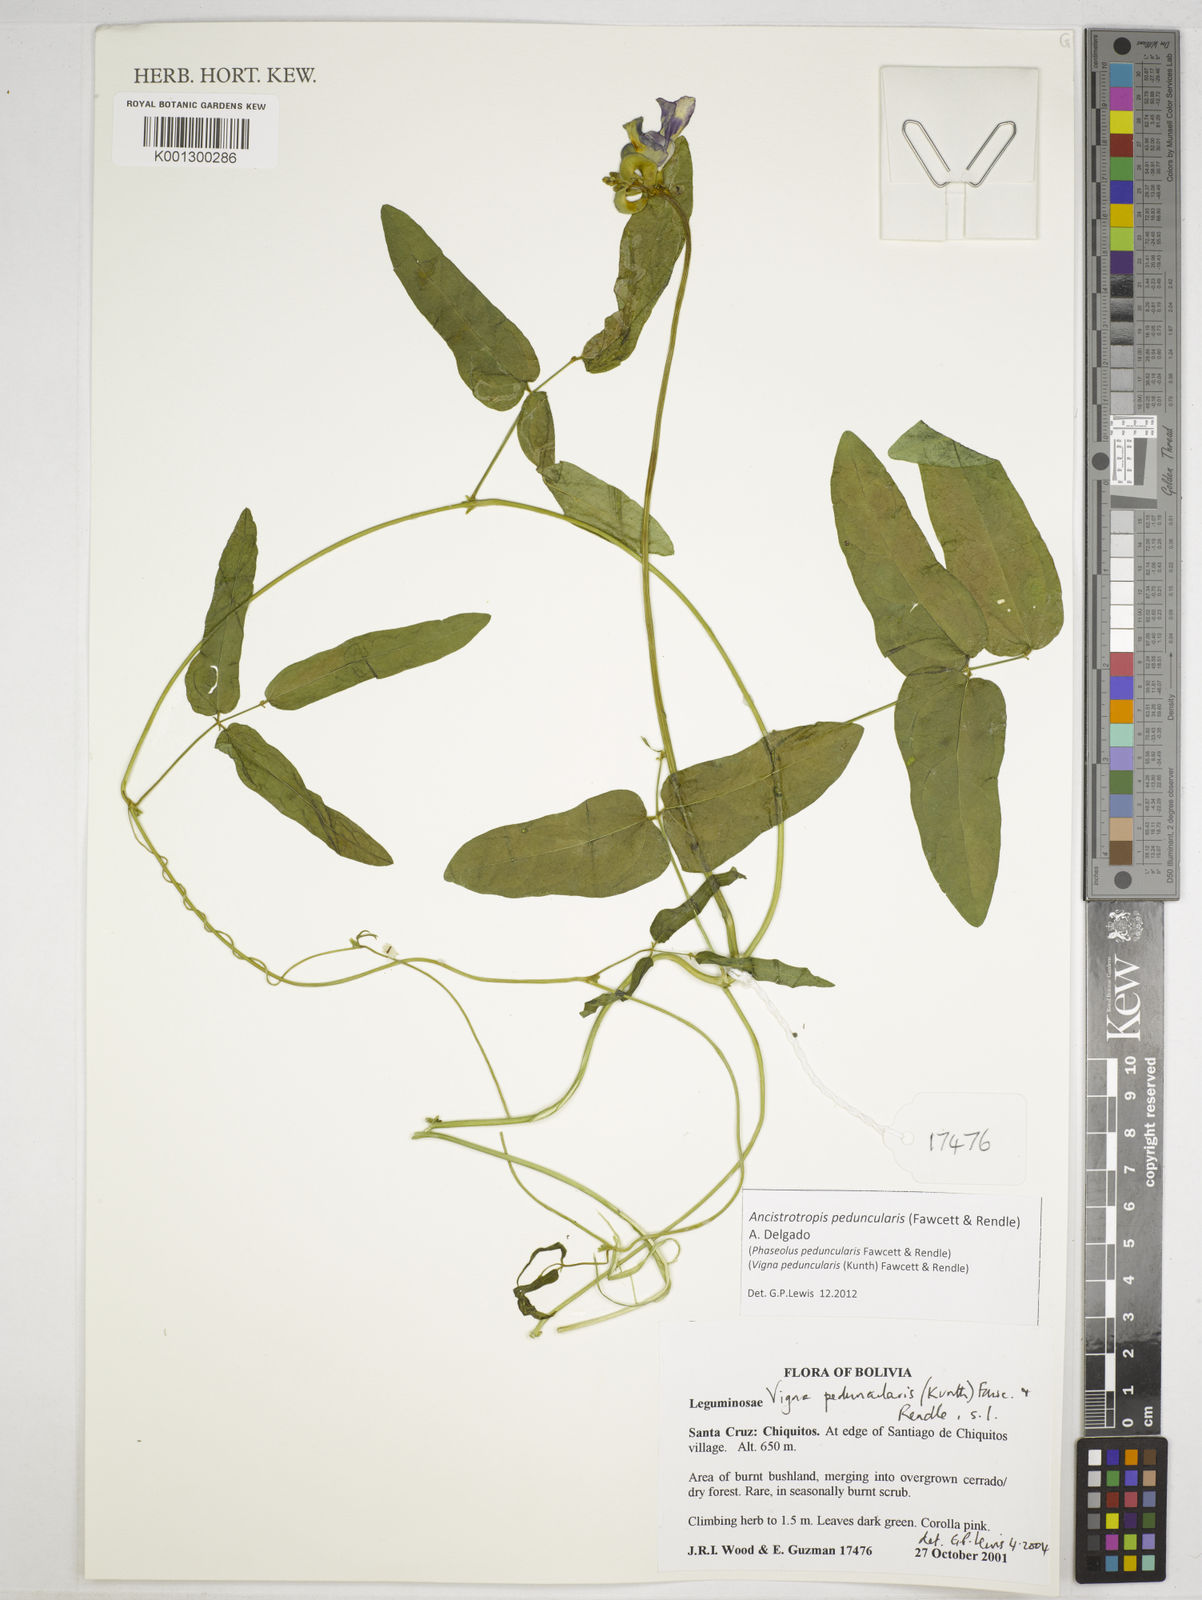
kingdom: Plantae
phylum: Tracheophyta
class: Magnoliopsida
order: Fabales
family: Fabaceae
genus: Ancistrotropis
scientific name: Ancistrotropis peduncularis
